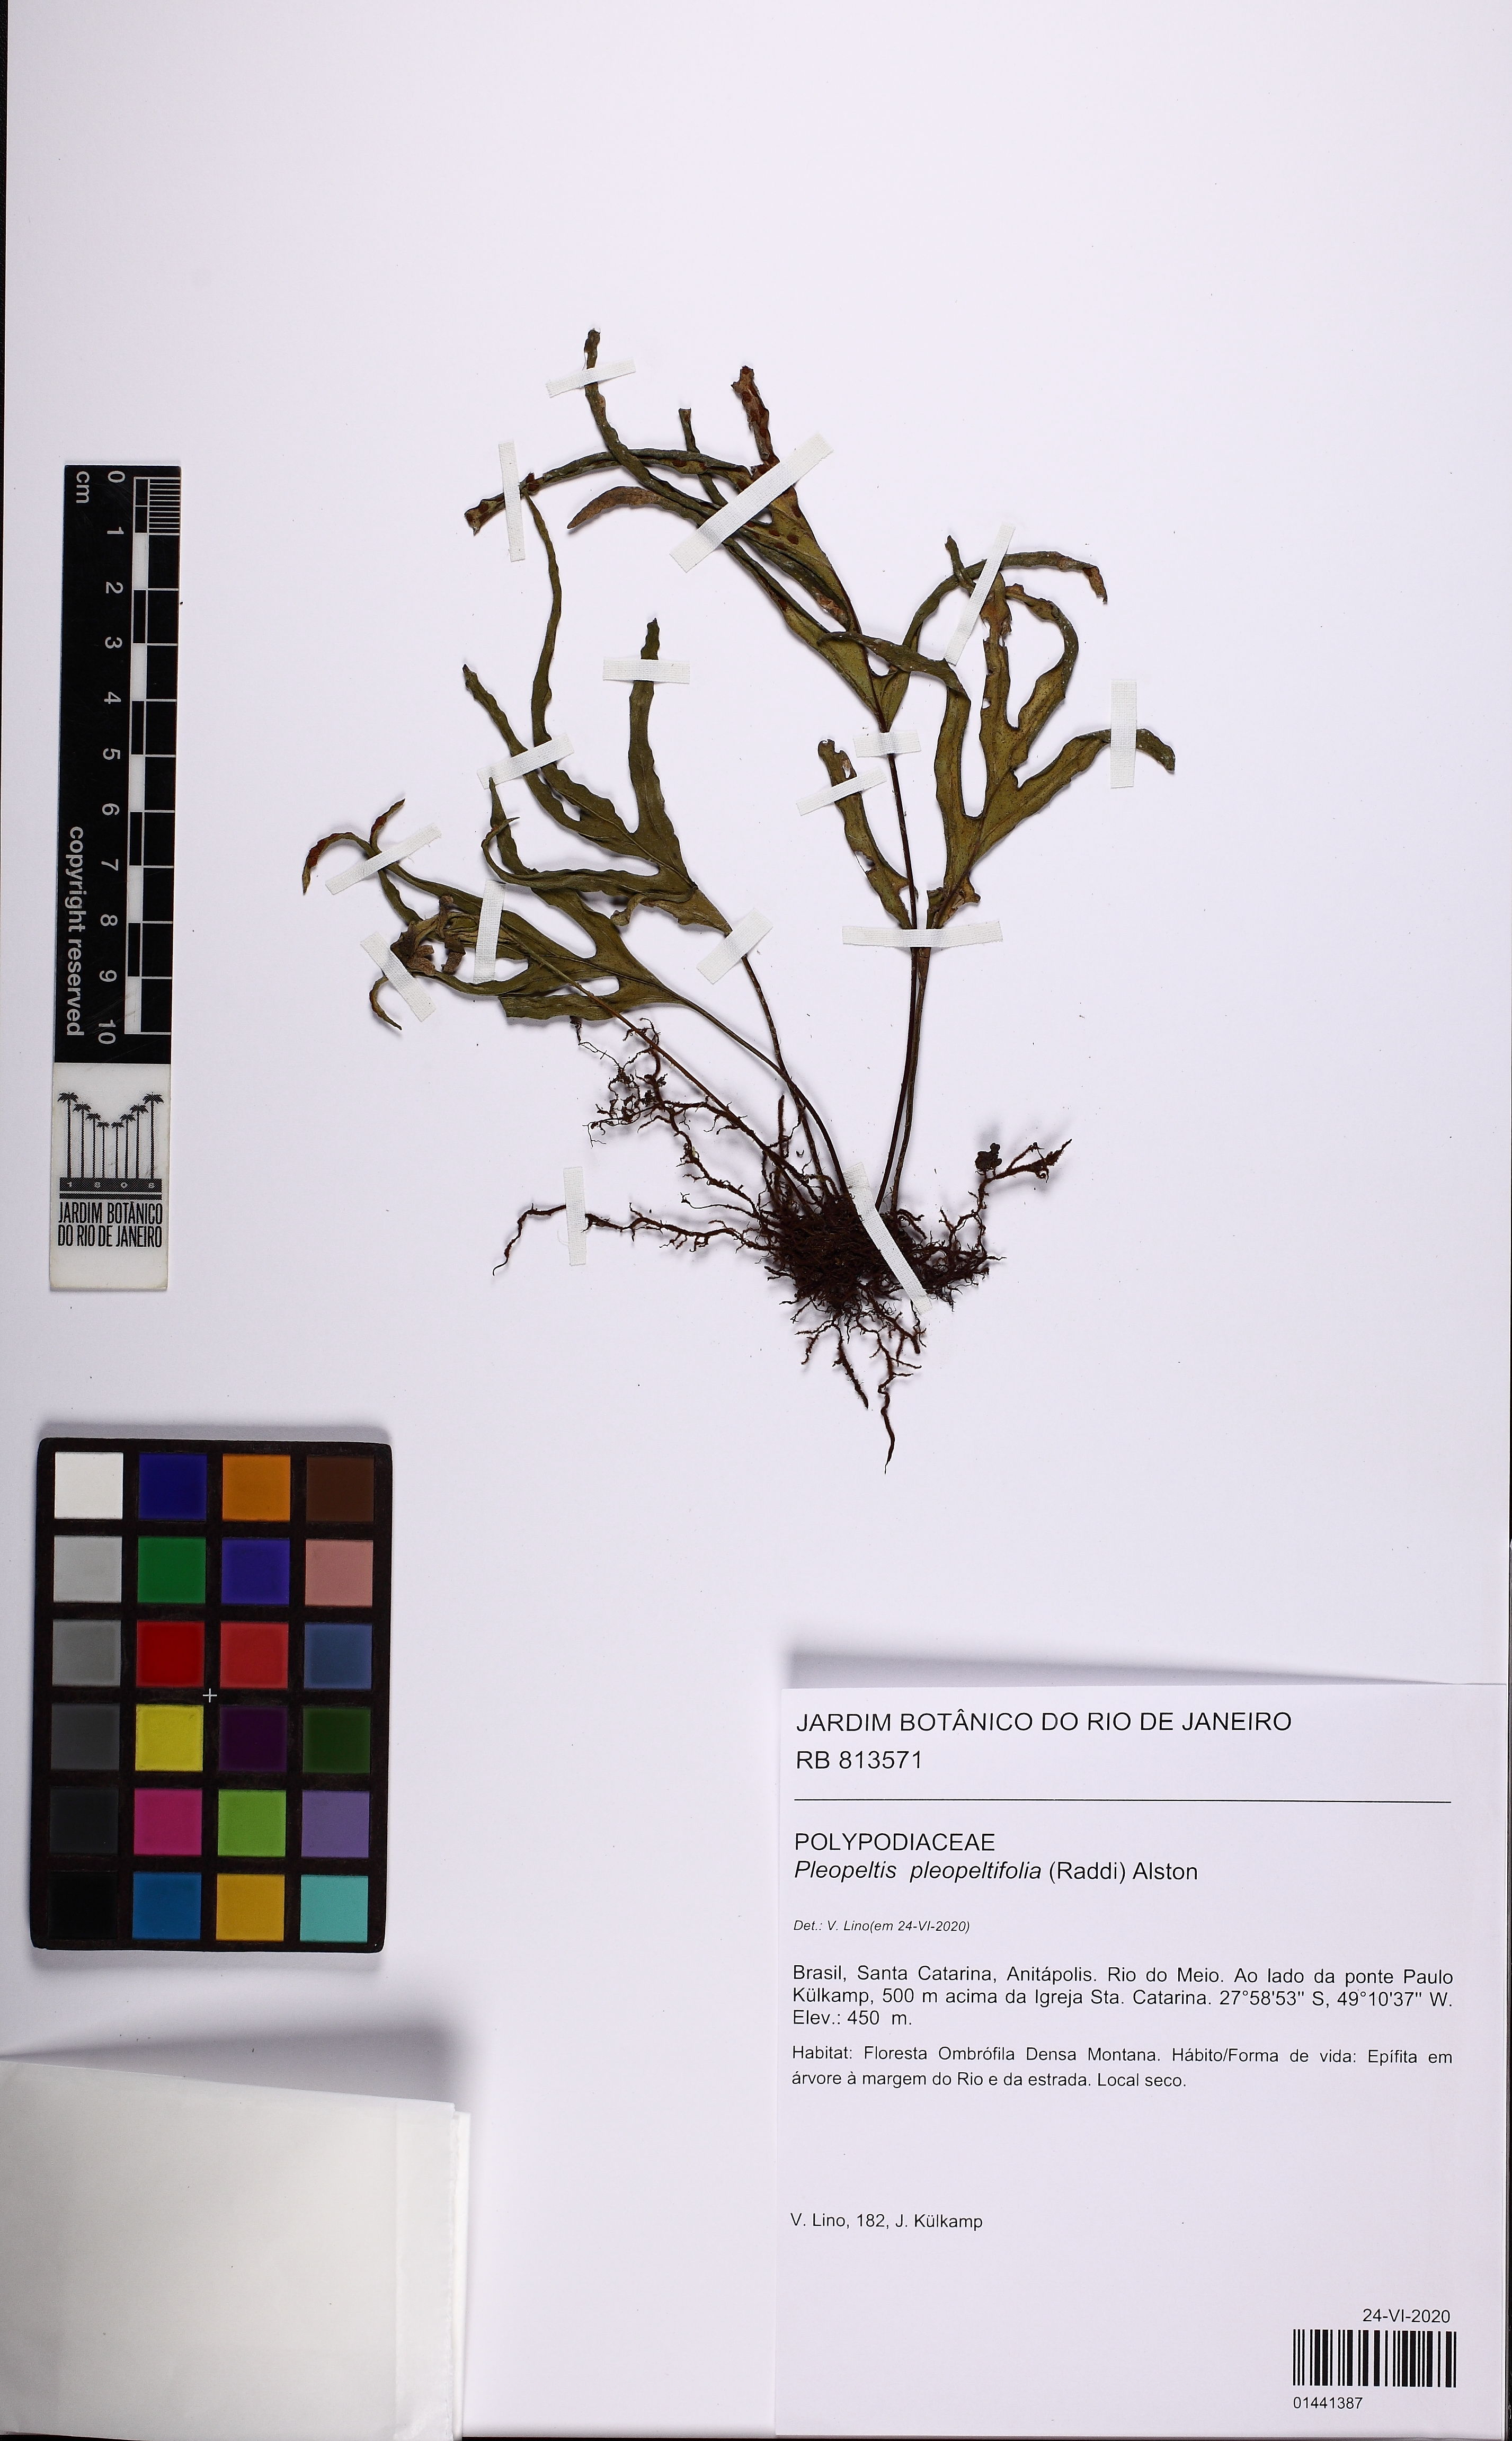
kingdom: Plantae
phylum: Tracheophyta
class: Polypodiopsida
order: Polypodiales
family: Polypodiaceae
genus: Pleopeltis
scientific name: Pleopeltis pleopeltifolia
